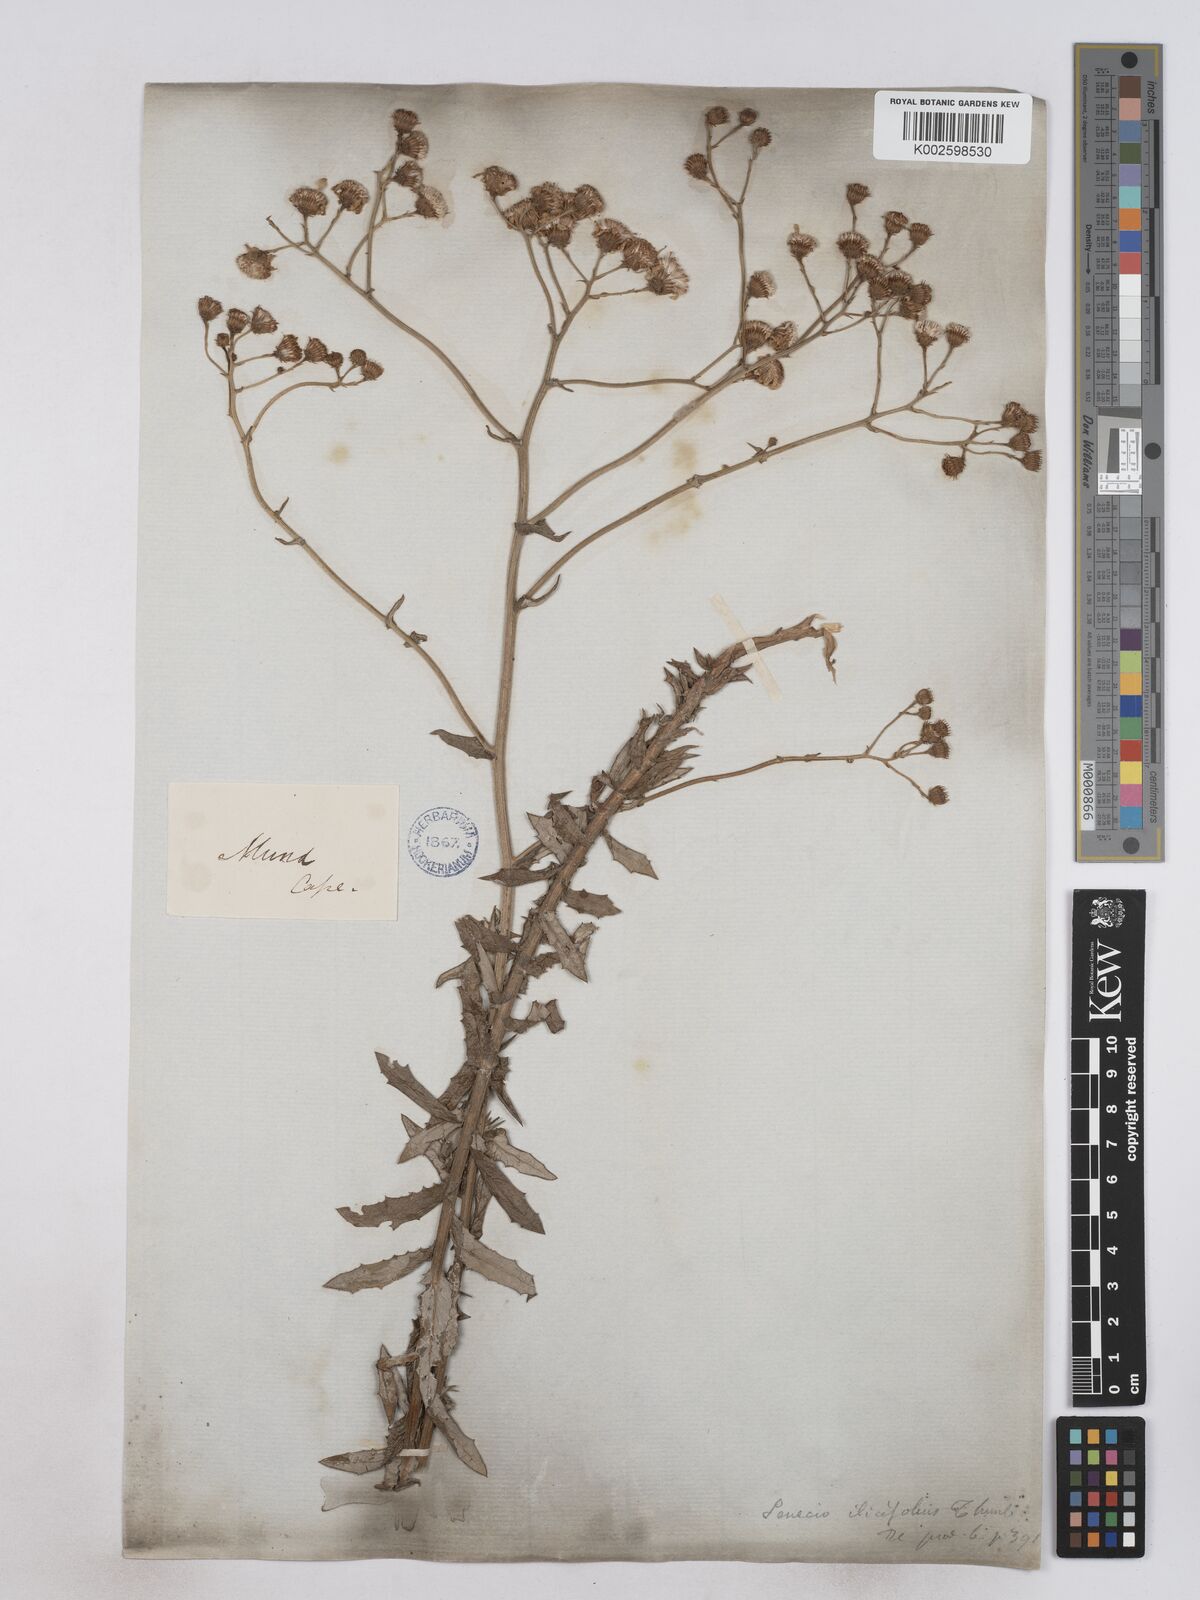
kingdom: Plantae
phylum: Tracheophyta
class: Magnoliopsida
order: Asterales
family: Asteraceae
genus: Senecio
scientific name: Senecio ilicifolius
